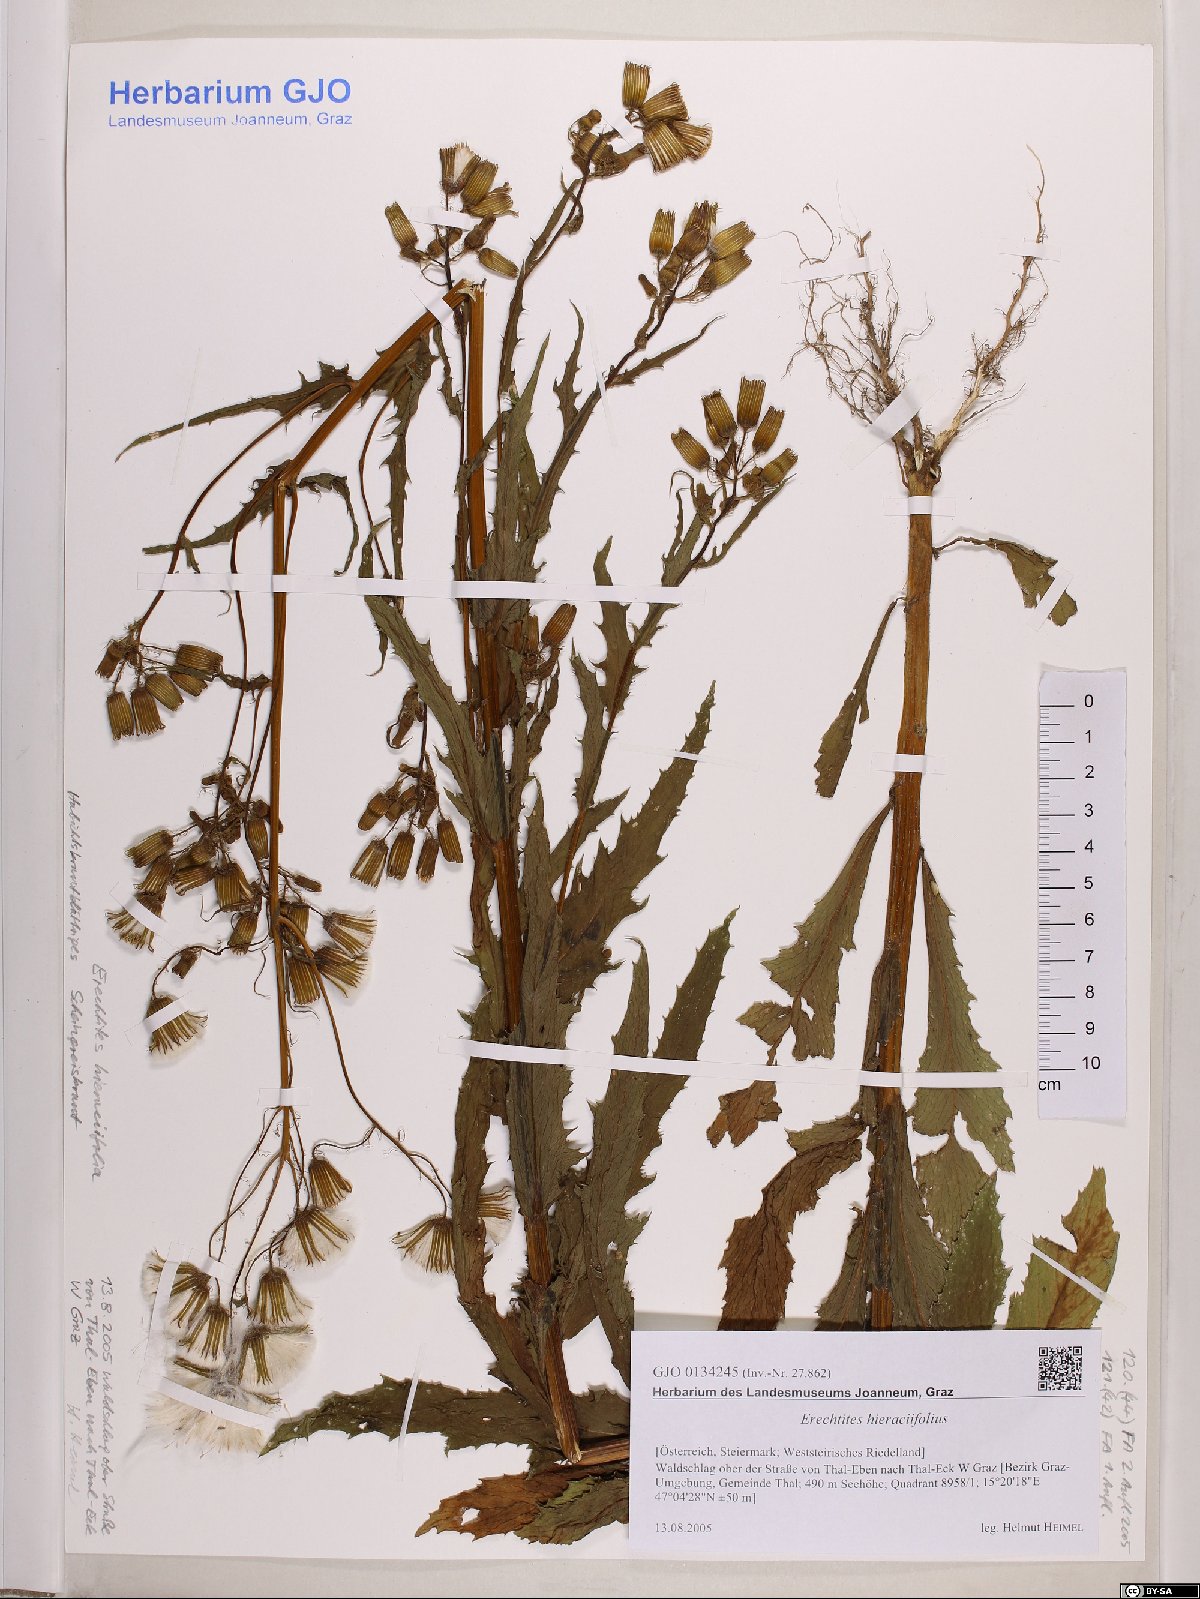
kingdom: Plantae
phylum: Tracheophyta
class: Magnoliopsida
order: Asterales
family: Asteraceae
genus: Erechtites
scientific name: Erechtites hieraciifolius
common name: American burnweed
